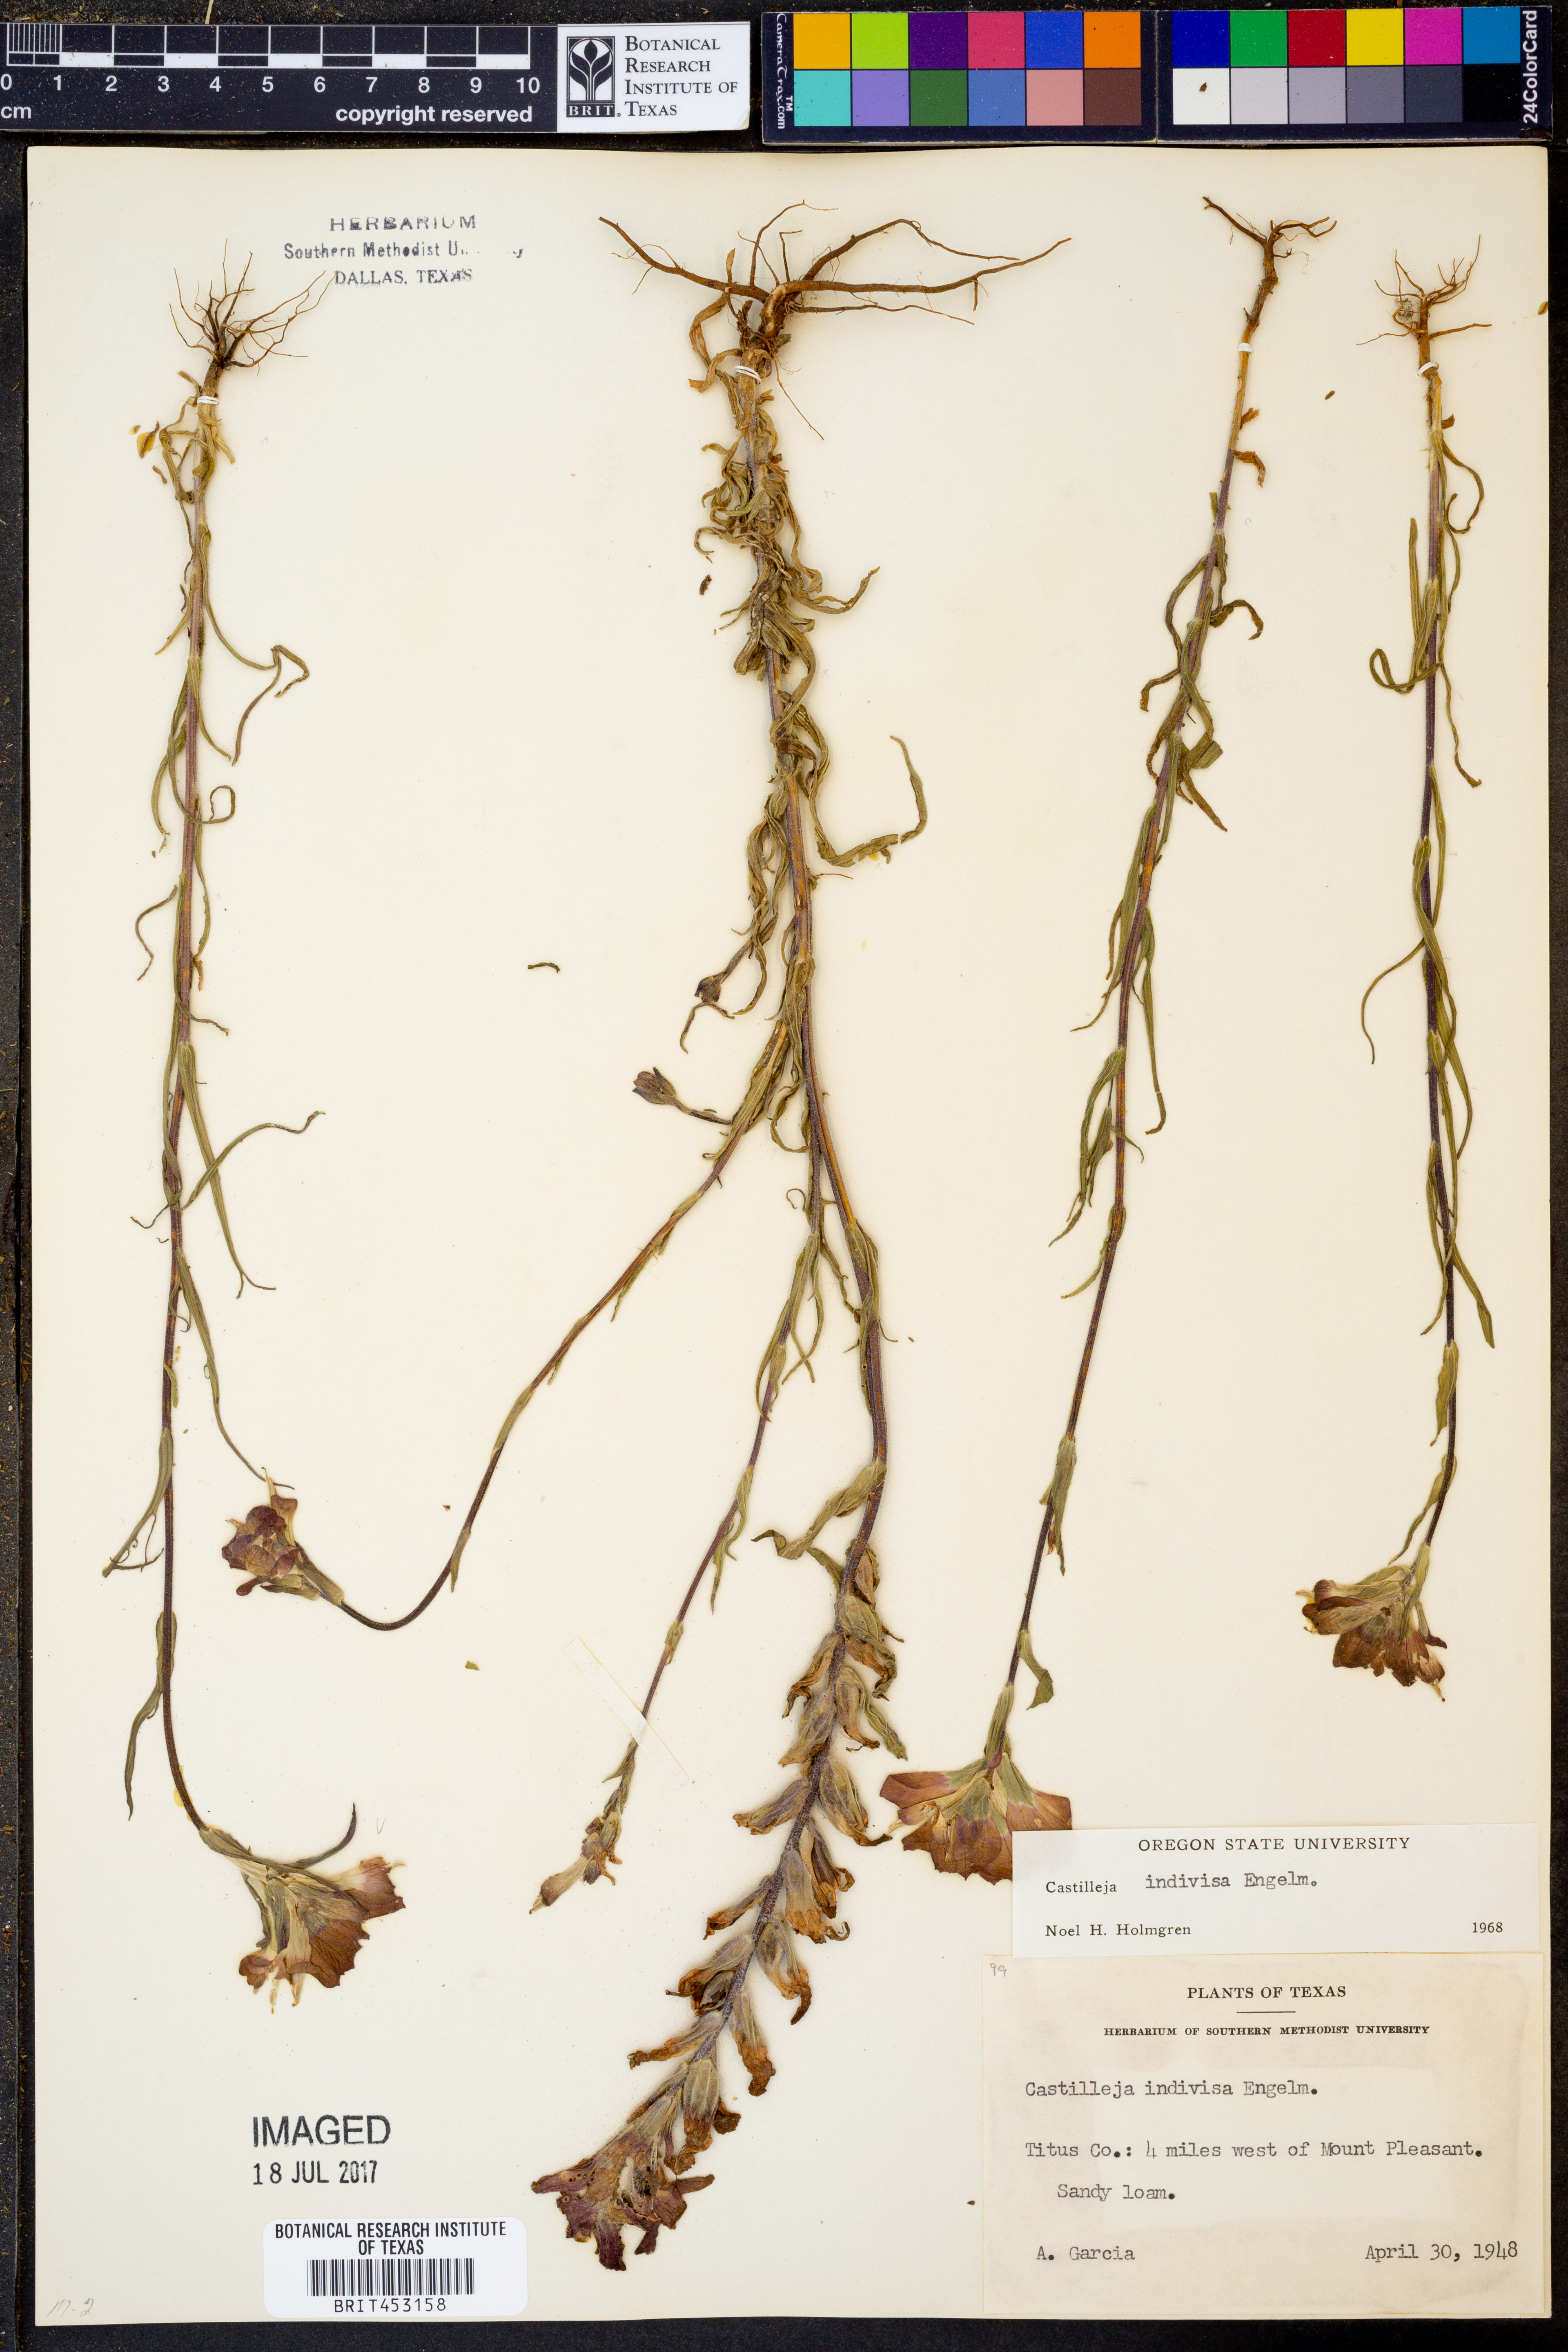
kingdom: Plantae
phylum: Tracheophyta
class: Magnoliopsida
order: Lamiales
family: Orobanchaceae
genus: Castilleja
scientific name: Castilleja indivisa
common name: Texas paintbrush
